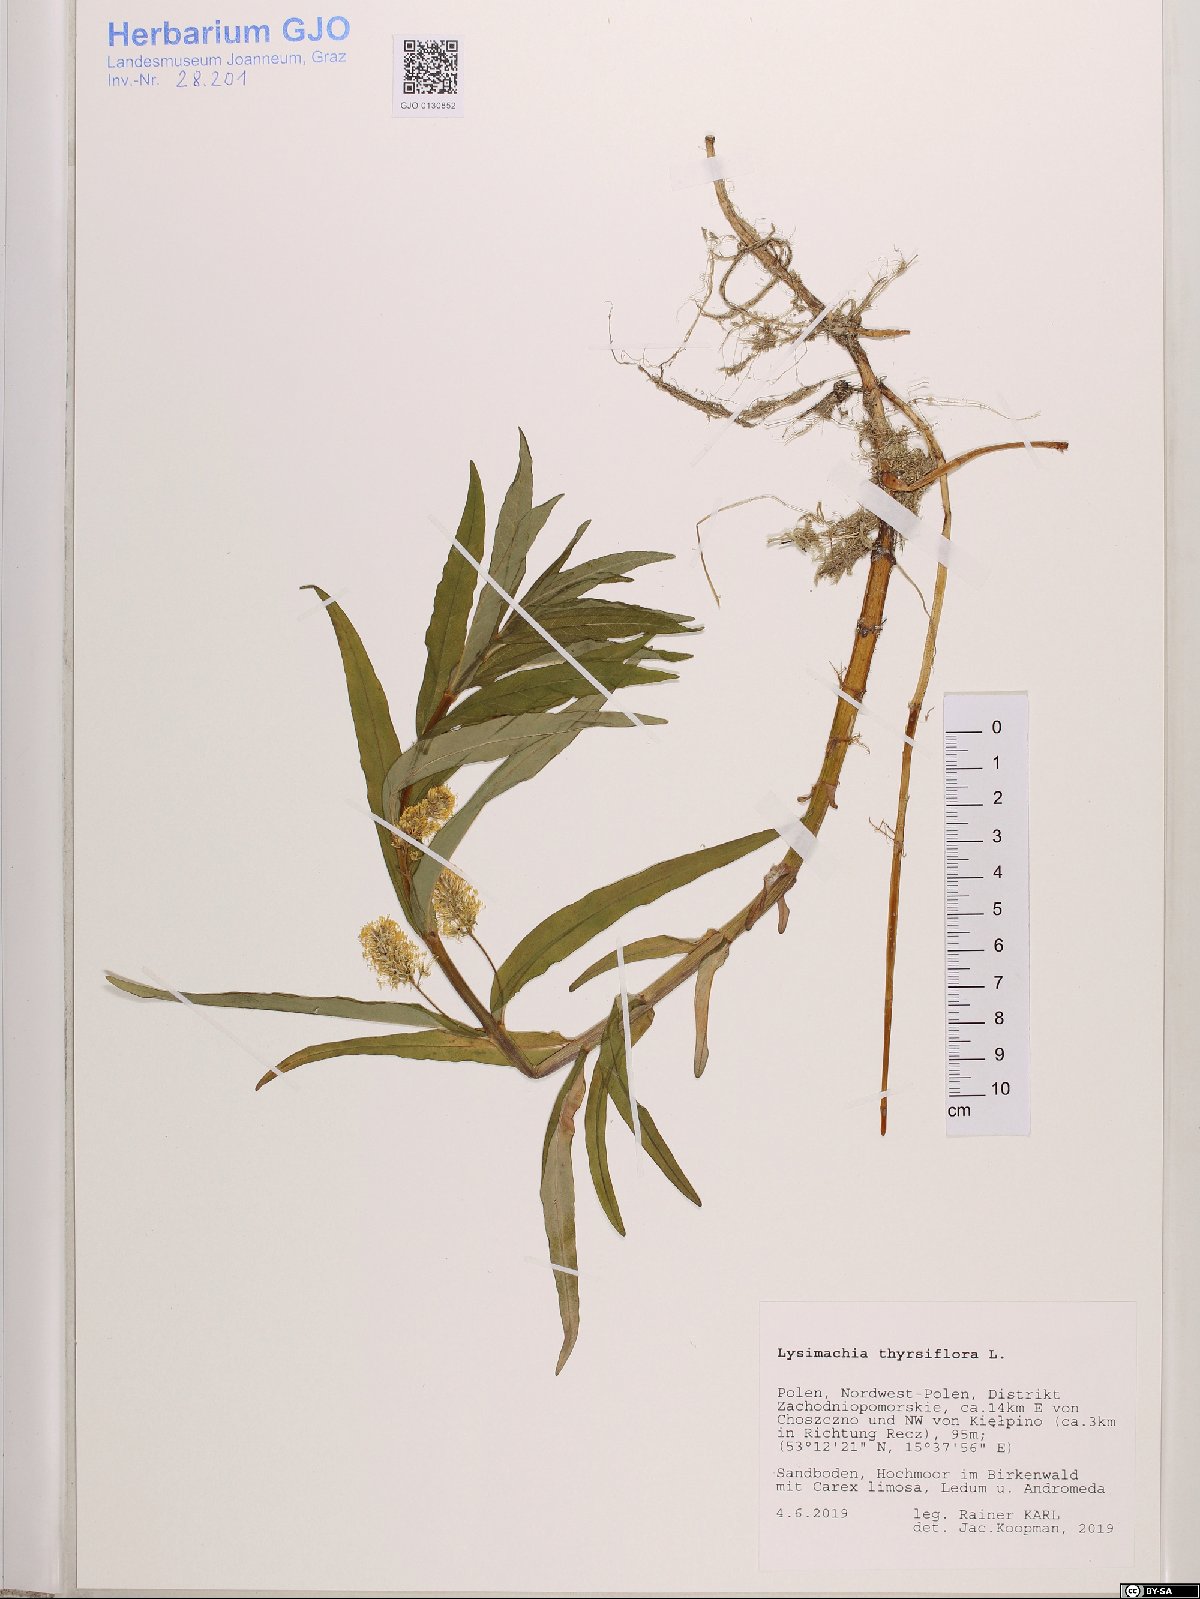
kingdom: Plantae
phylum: Tracheophyta
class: Magnoliopsida
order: Ericales
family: Primulaceae
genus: Lysimachia
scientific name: Lysimachia thyrsiflora
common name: Tufted loosestrife
